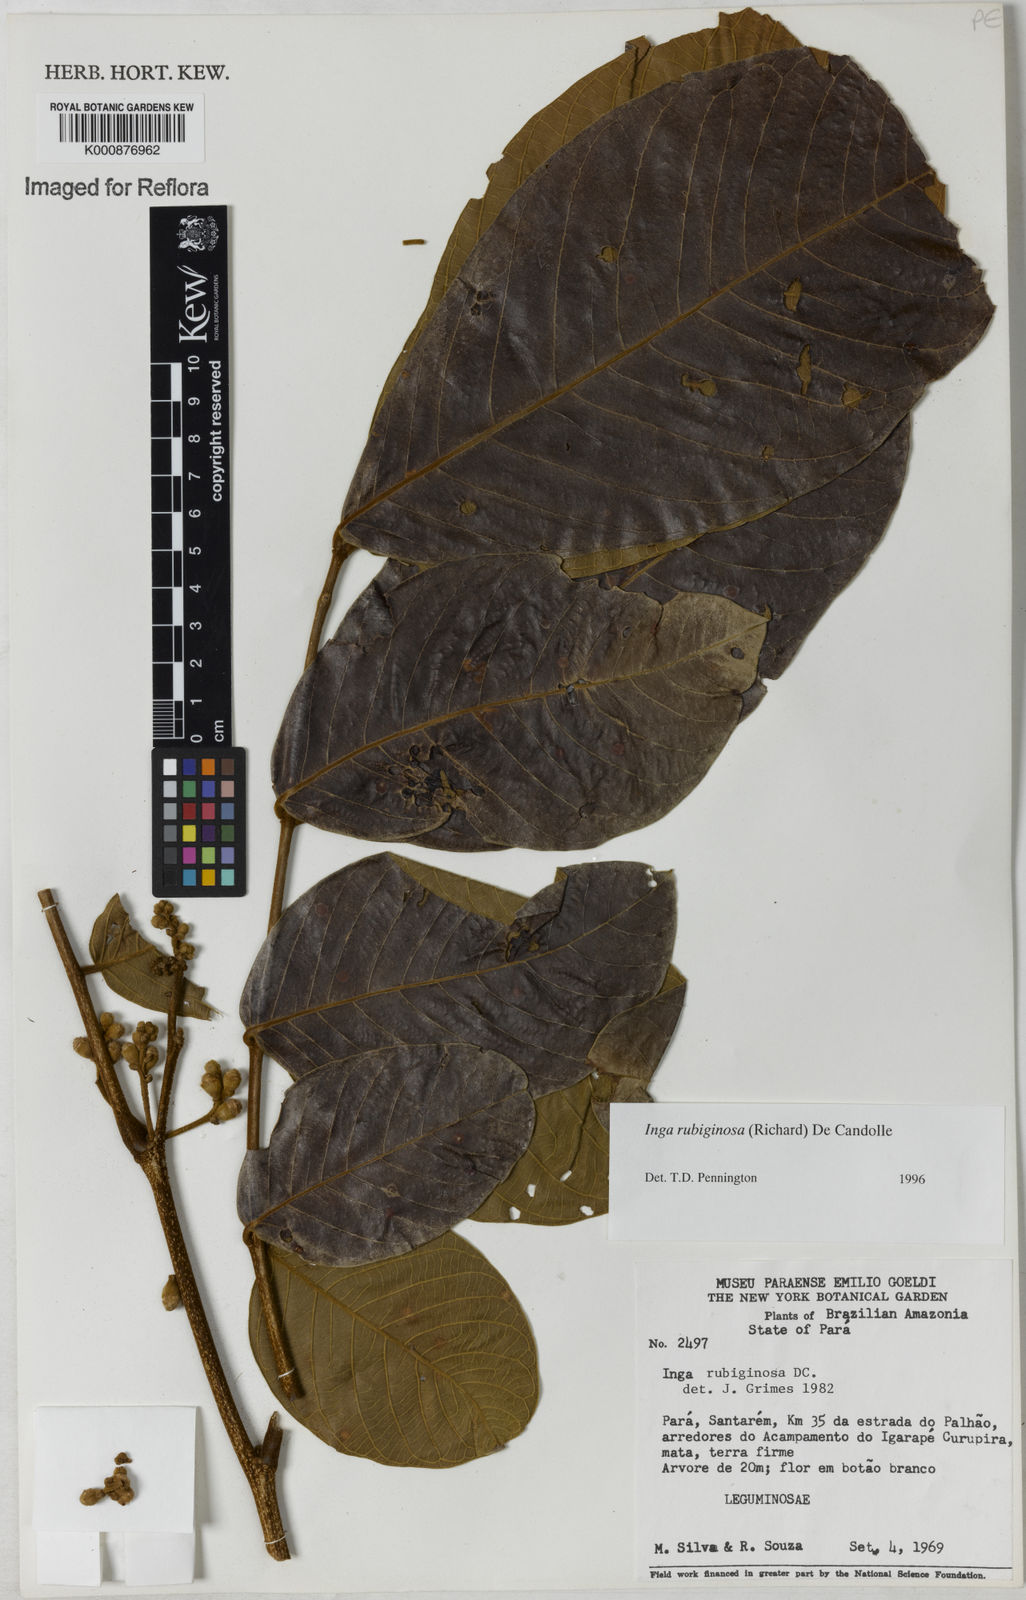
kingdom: Plantae
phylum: Tracheophyta
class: Magnoliopsida
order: Fabales
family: Fabaceae
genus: Inga
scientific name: Inga rubiginosa
